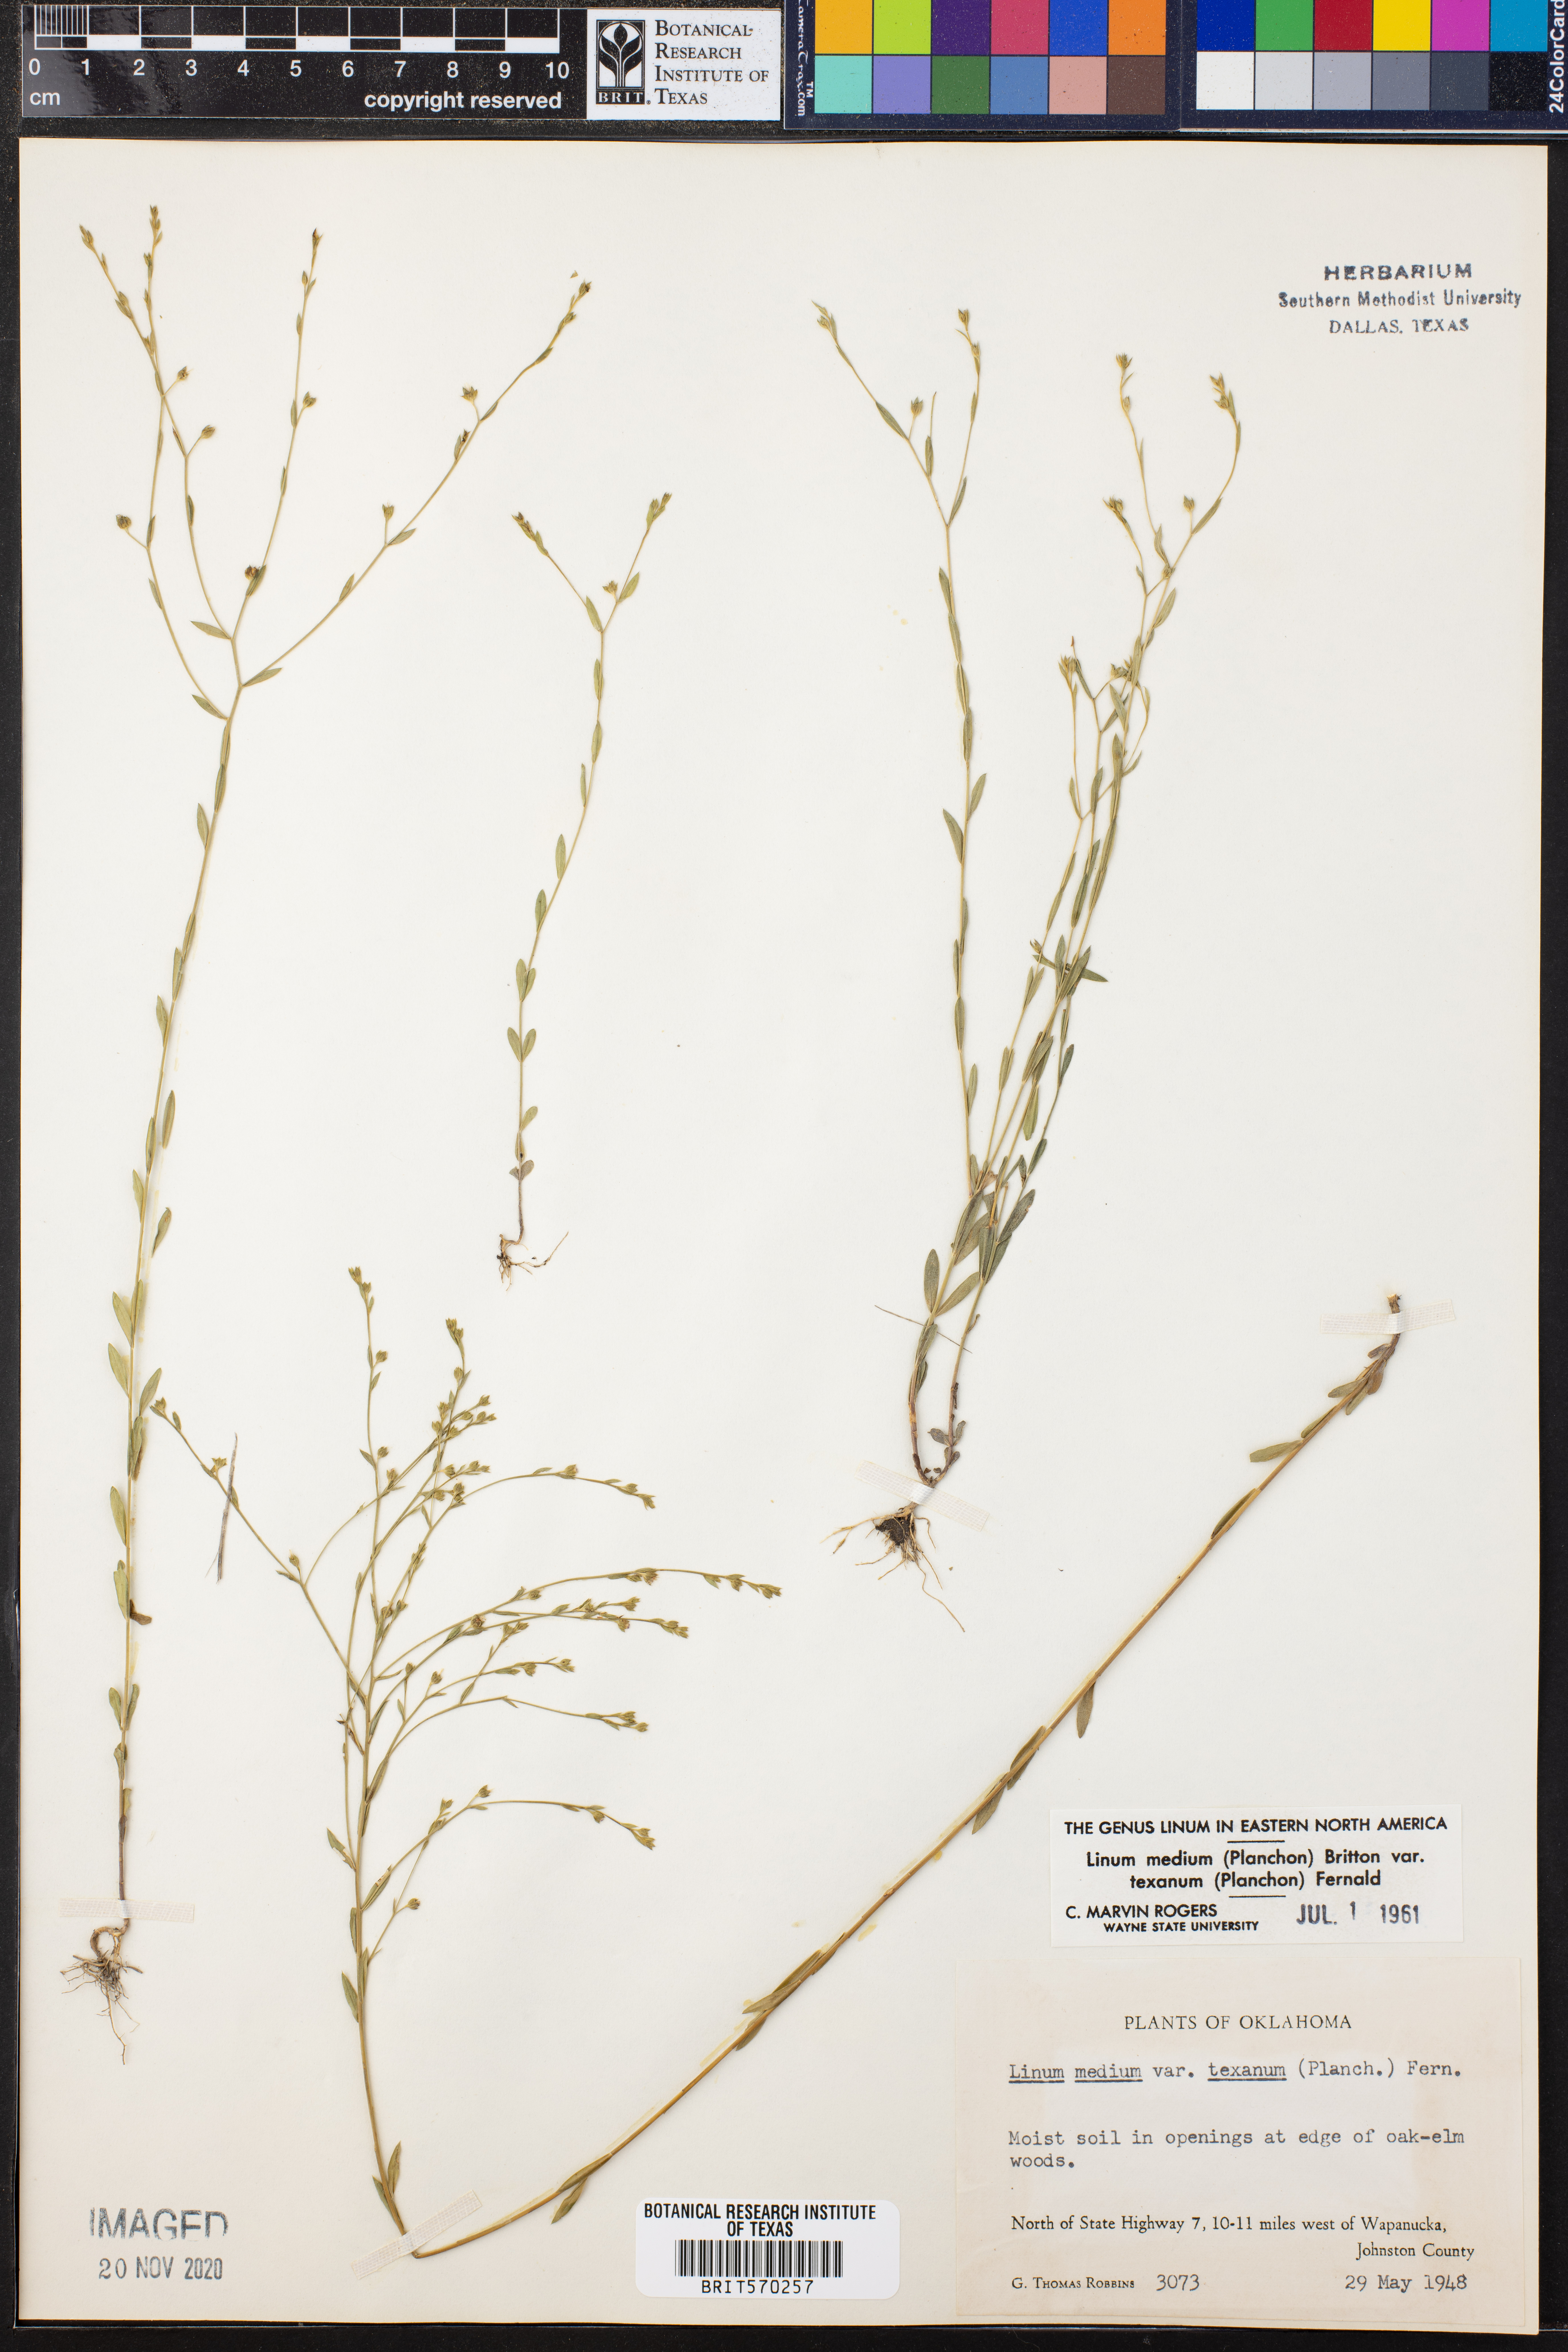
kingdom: Plantae
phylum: Tracheophyta
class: Magnoliopsida
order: Malpighiales
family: Linaceae
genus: Linum
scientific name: Linum medium
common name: Stiff yellow flax
